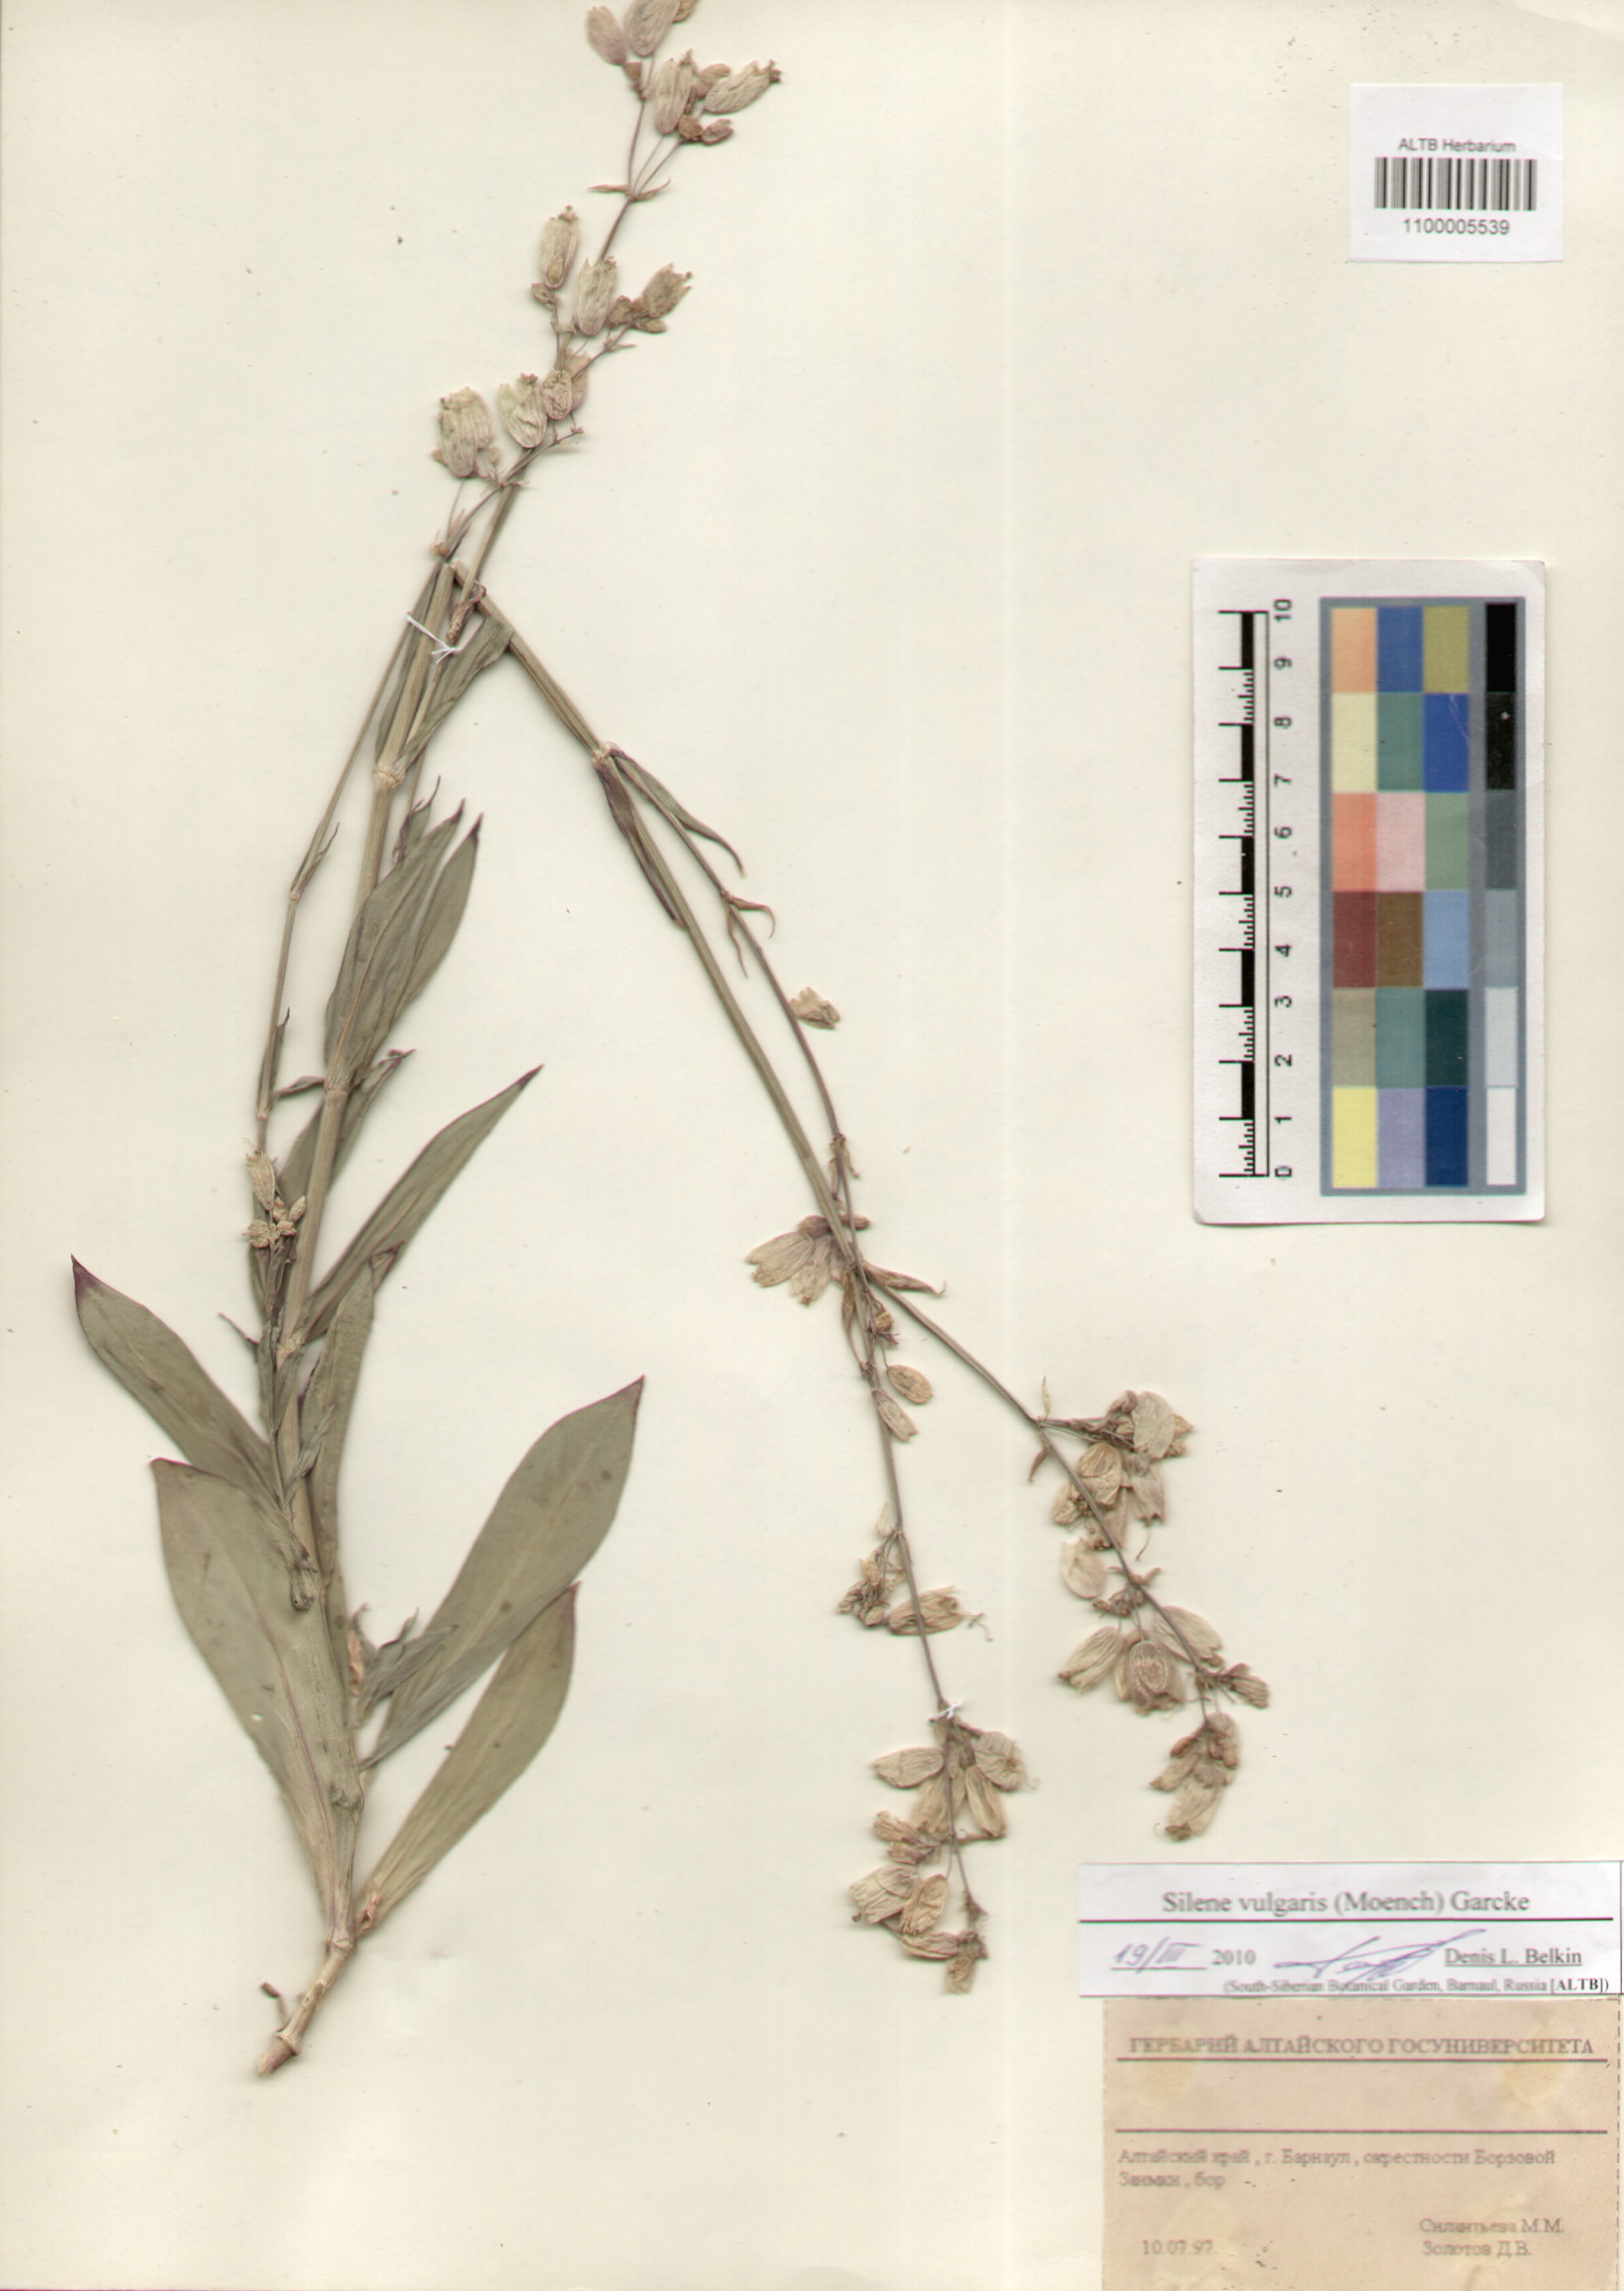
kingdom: Plantae
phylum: Tracheophyta
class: Magnoliopsida
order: Caryophyllales
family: Caryophyllaceae
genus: Silene
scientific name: Silene vulgaris
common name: Bladder campion
